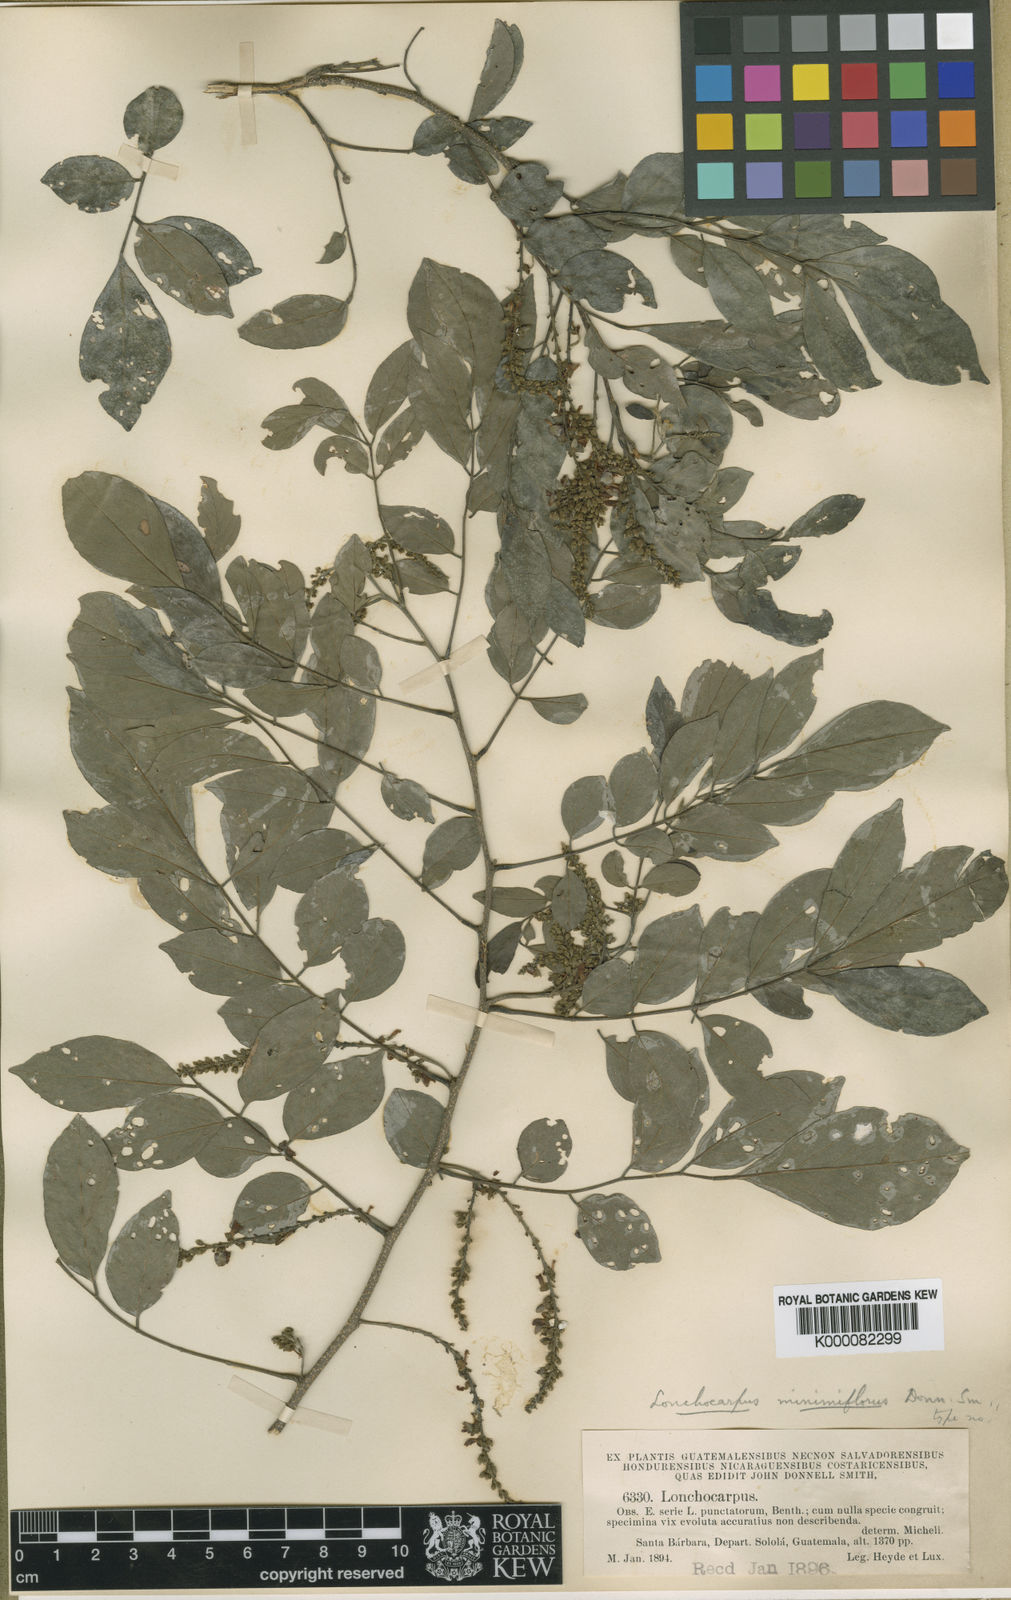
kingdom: Plantae
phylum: Tracheophyta
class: Magnoliopsida
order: Fabales
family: Fabaceae
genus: Lonchocarpus
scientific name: Lonchocarpus minimiflorus
